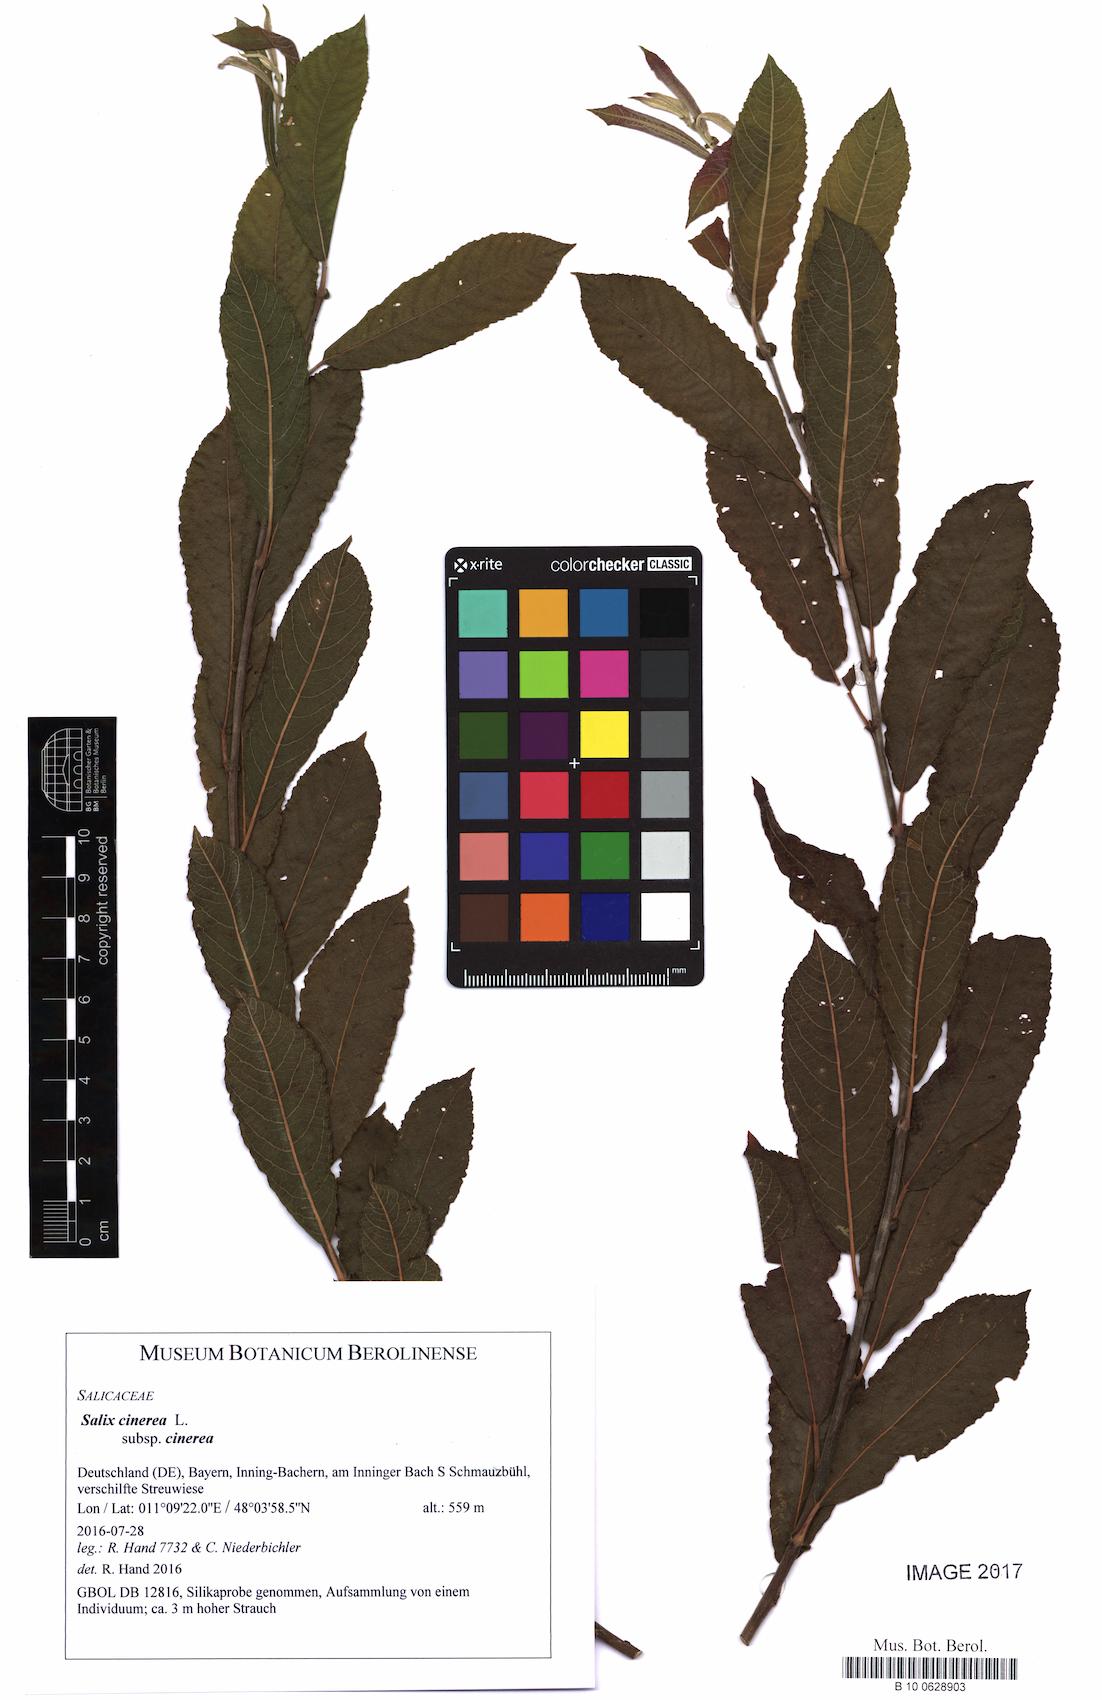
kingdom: Plantae
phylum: Tracheophyta
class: Magnoliopsida
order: Malpighiales
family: Salicaceae
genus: Salix
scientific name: Salix cinerea
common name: Common sallow
